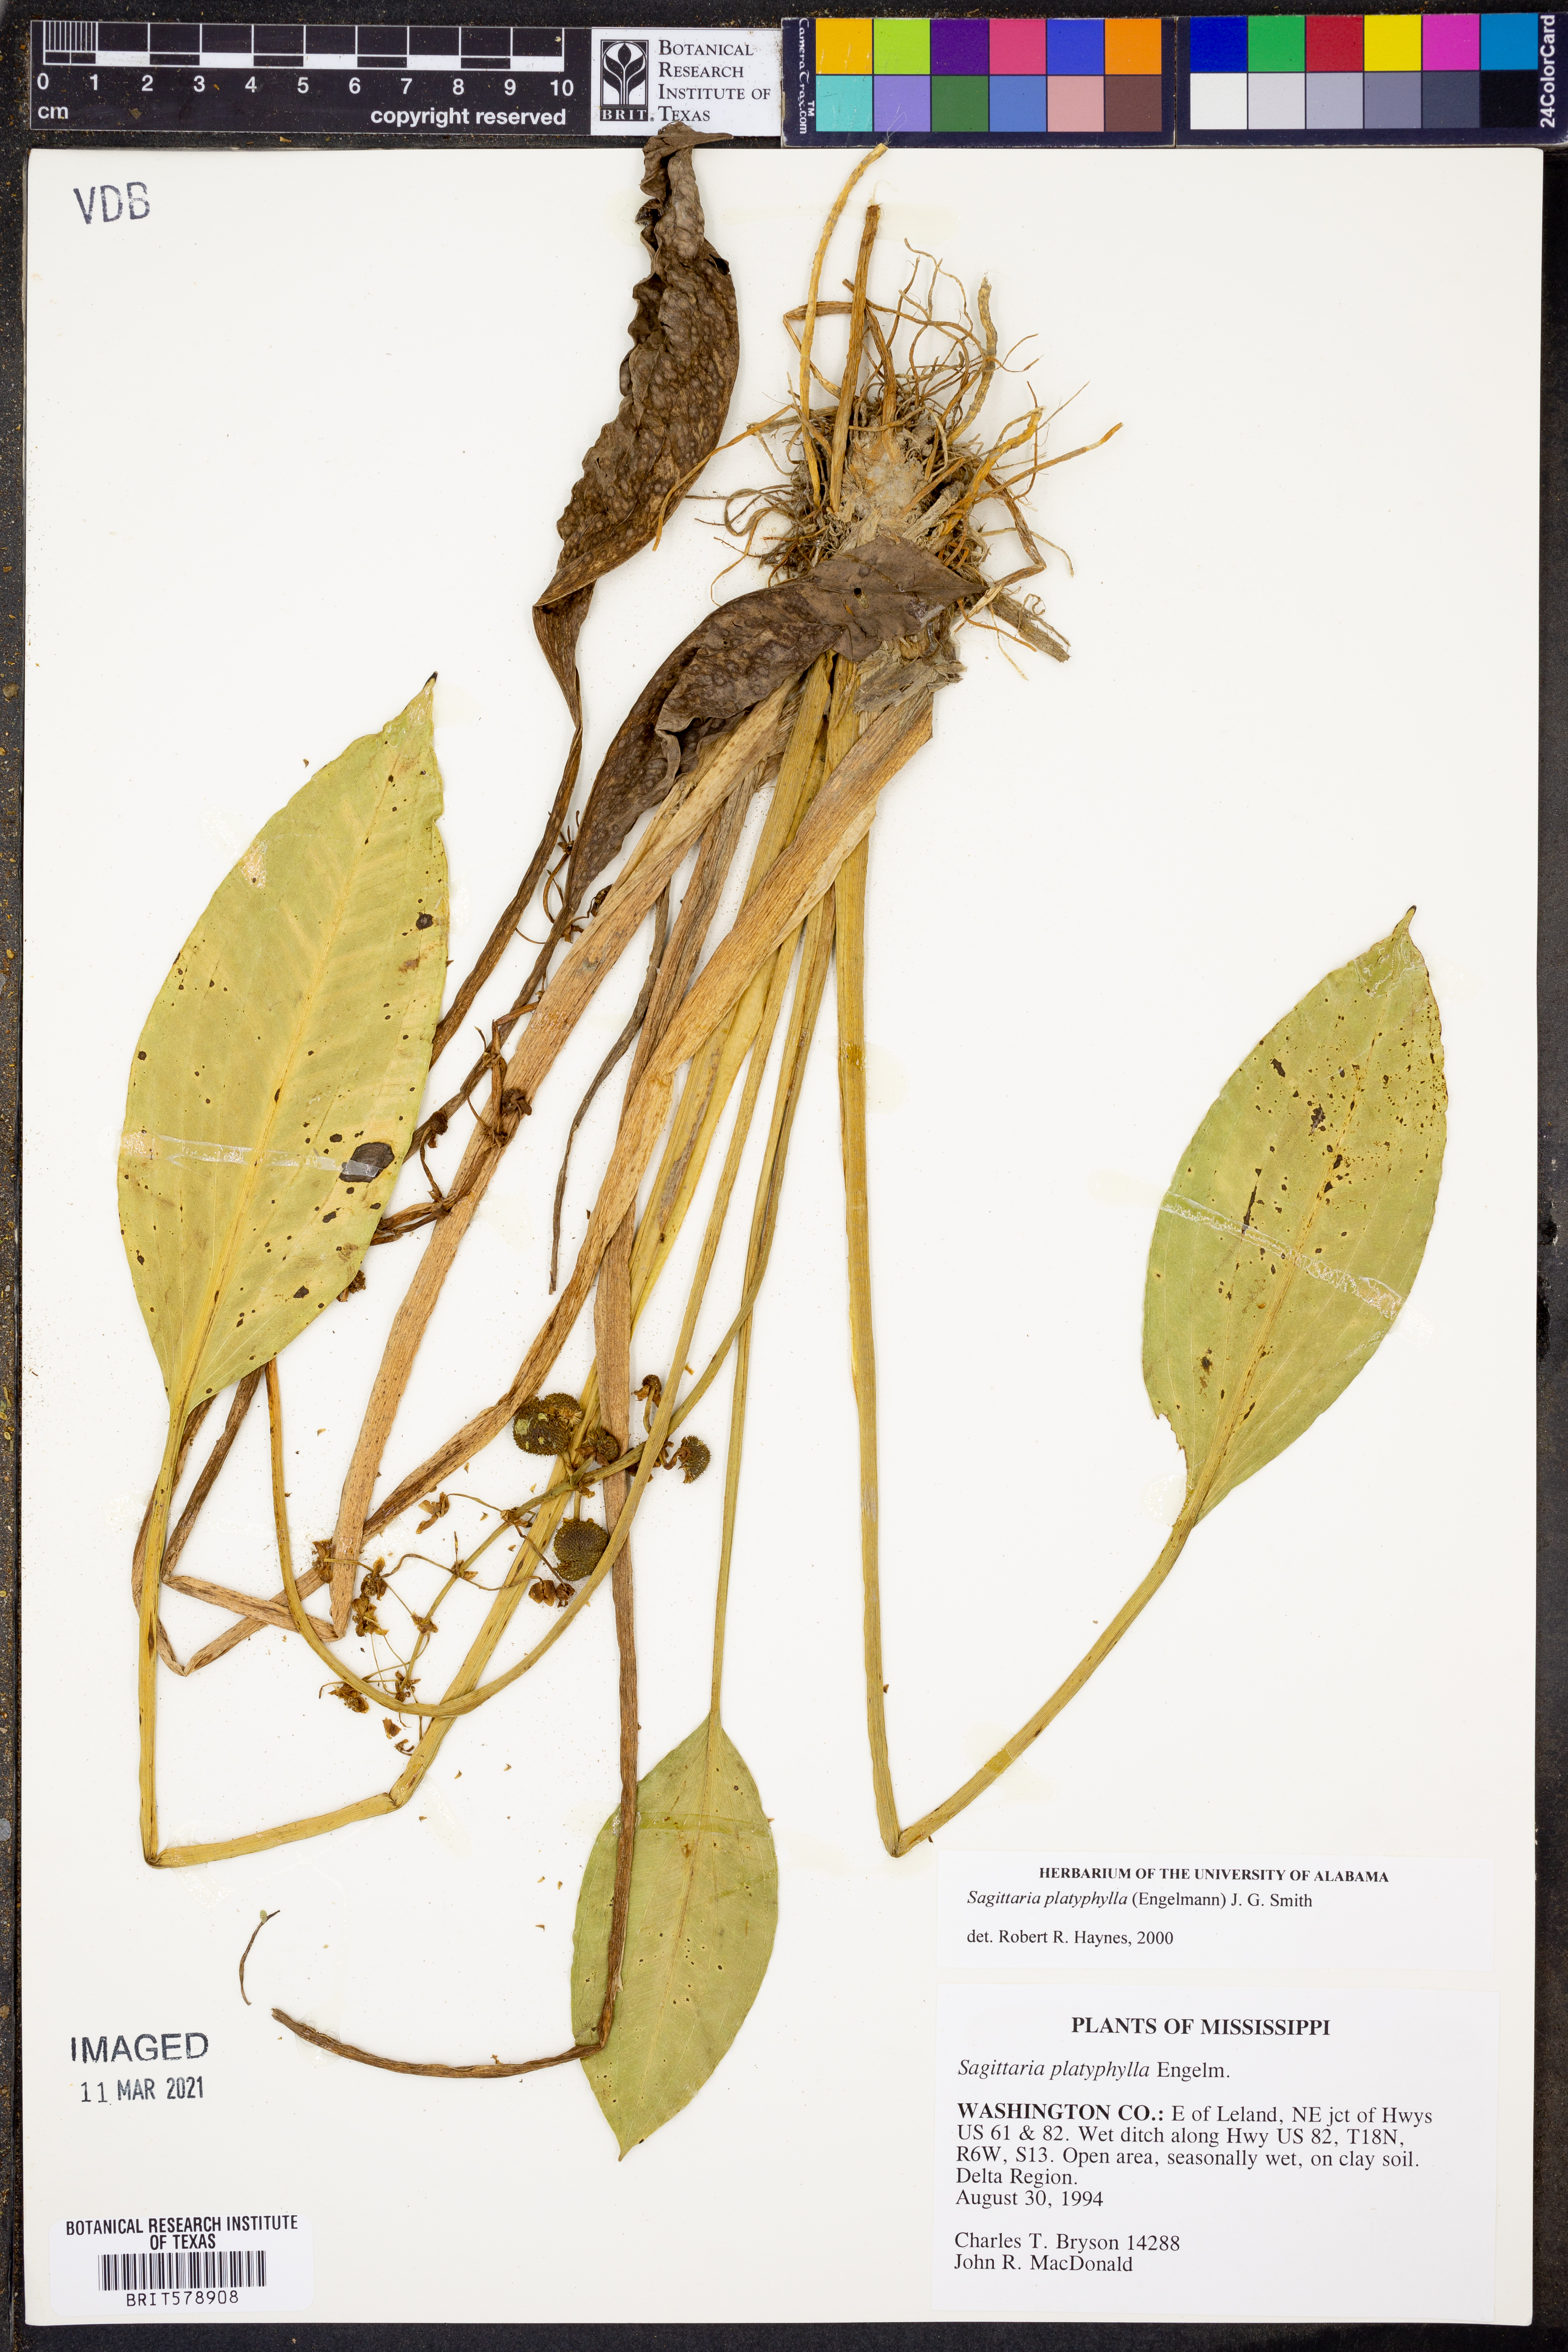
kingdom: Plantae
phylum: Tracheophyta
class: Liliopsida
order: Alismatales
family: Alismataceae
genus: Sagittaria
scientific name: Sagittaria platyphylla
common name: Broad-leaf arrowhead
